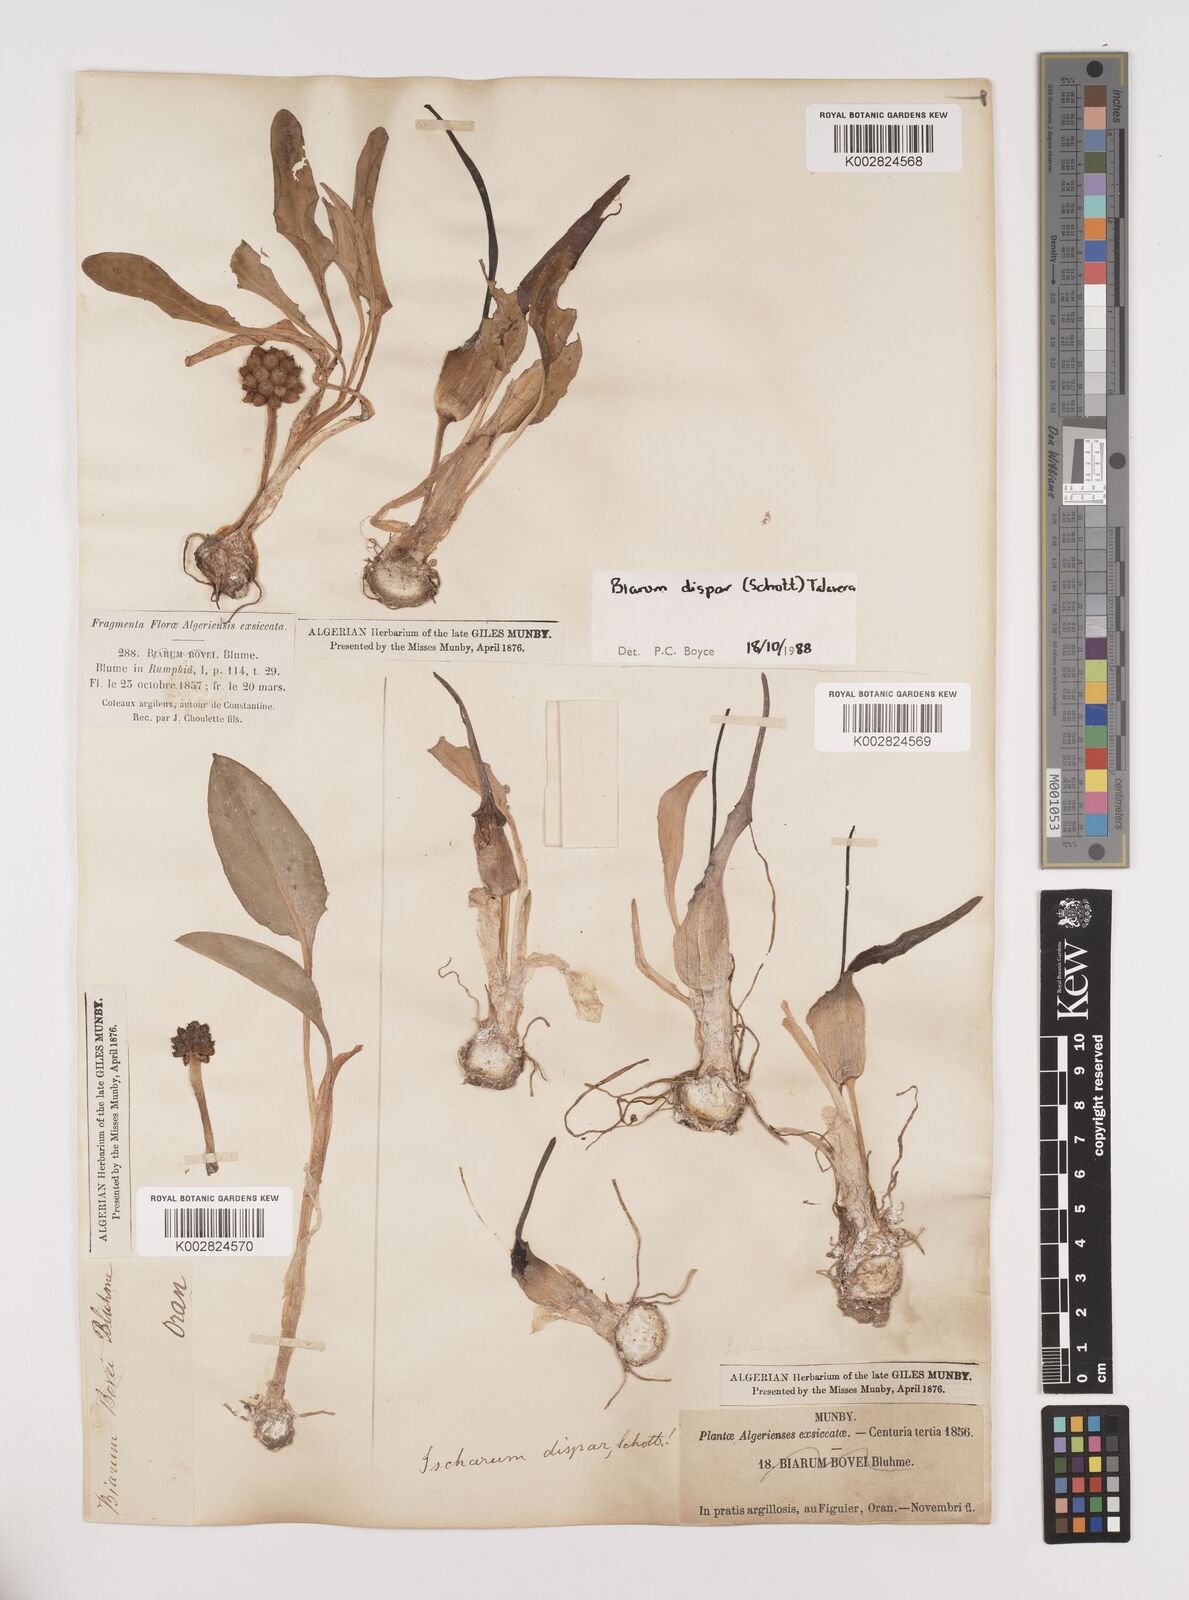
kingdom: Plantae
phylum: Tracheophyta
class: Liliopsida
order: Alismatales
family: Araceae
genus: Biarum
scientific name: Biarum dispar
